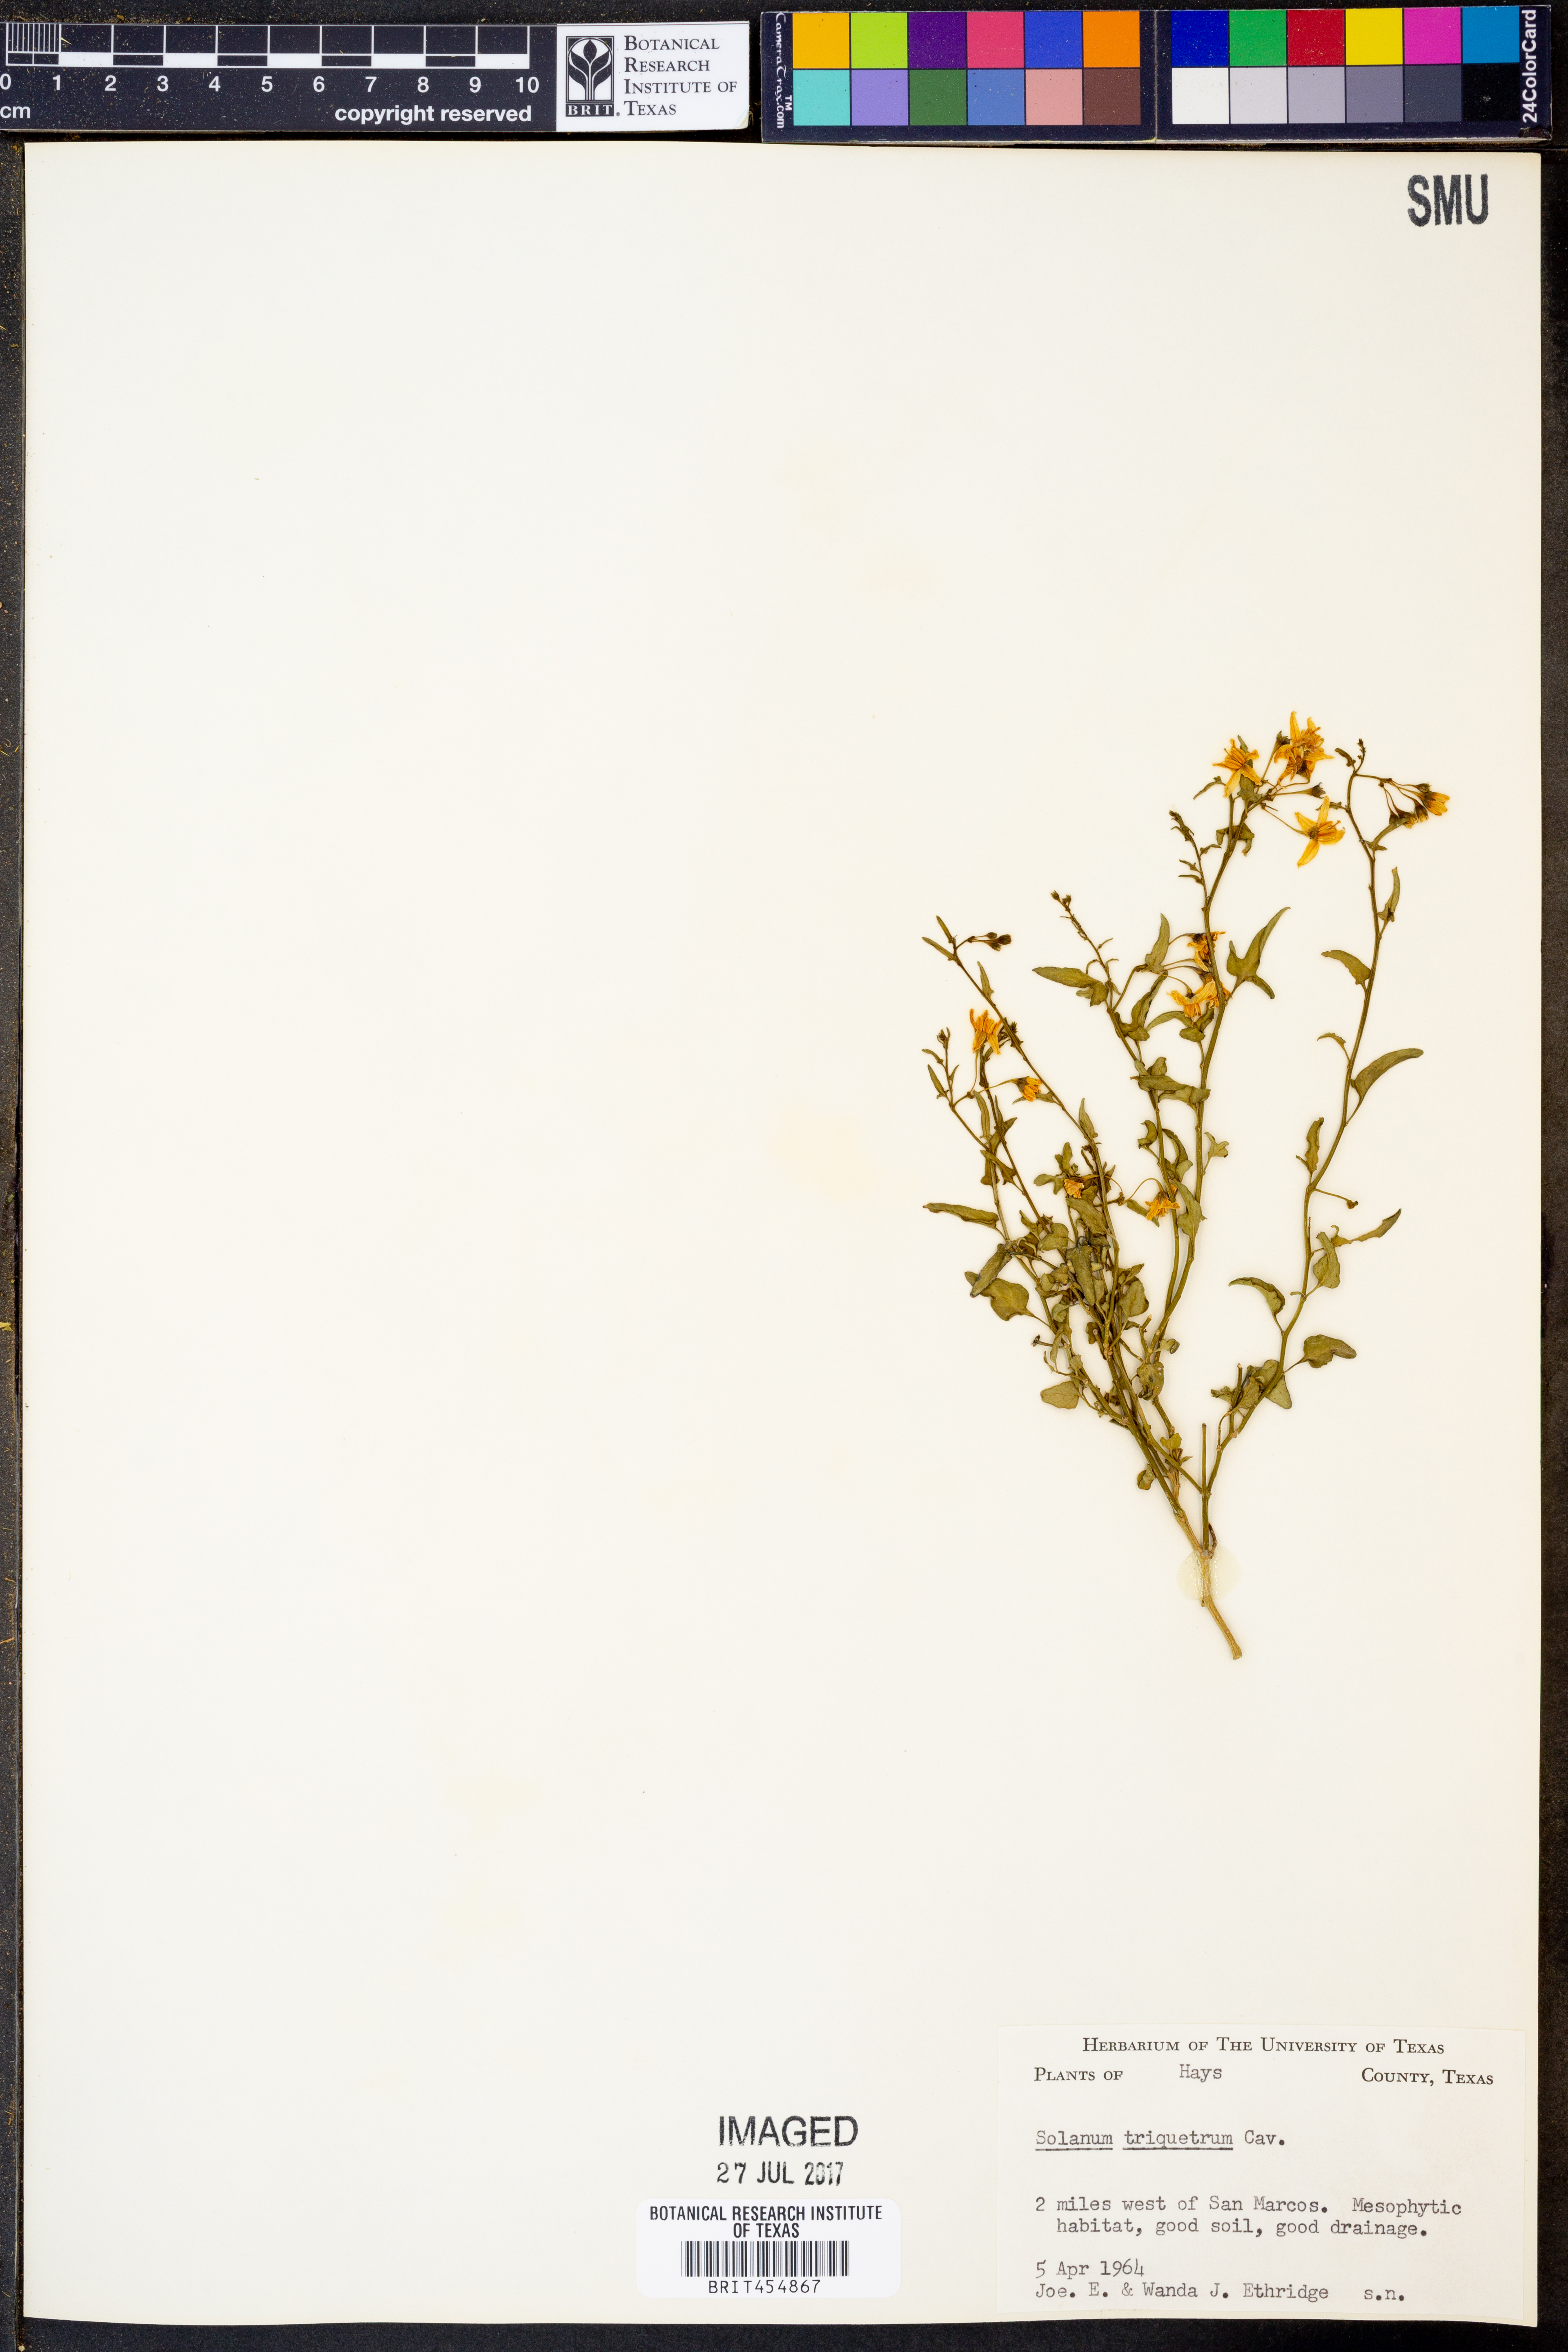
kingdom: Plantae
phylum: Tracheophyta
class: Magnoliopsida
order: Solanales
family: Solanaceae
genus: Solanum
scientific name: Solanum triquetrum
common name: Texas nightshade
